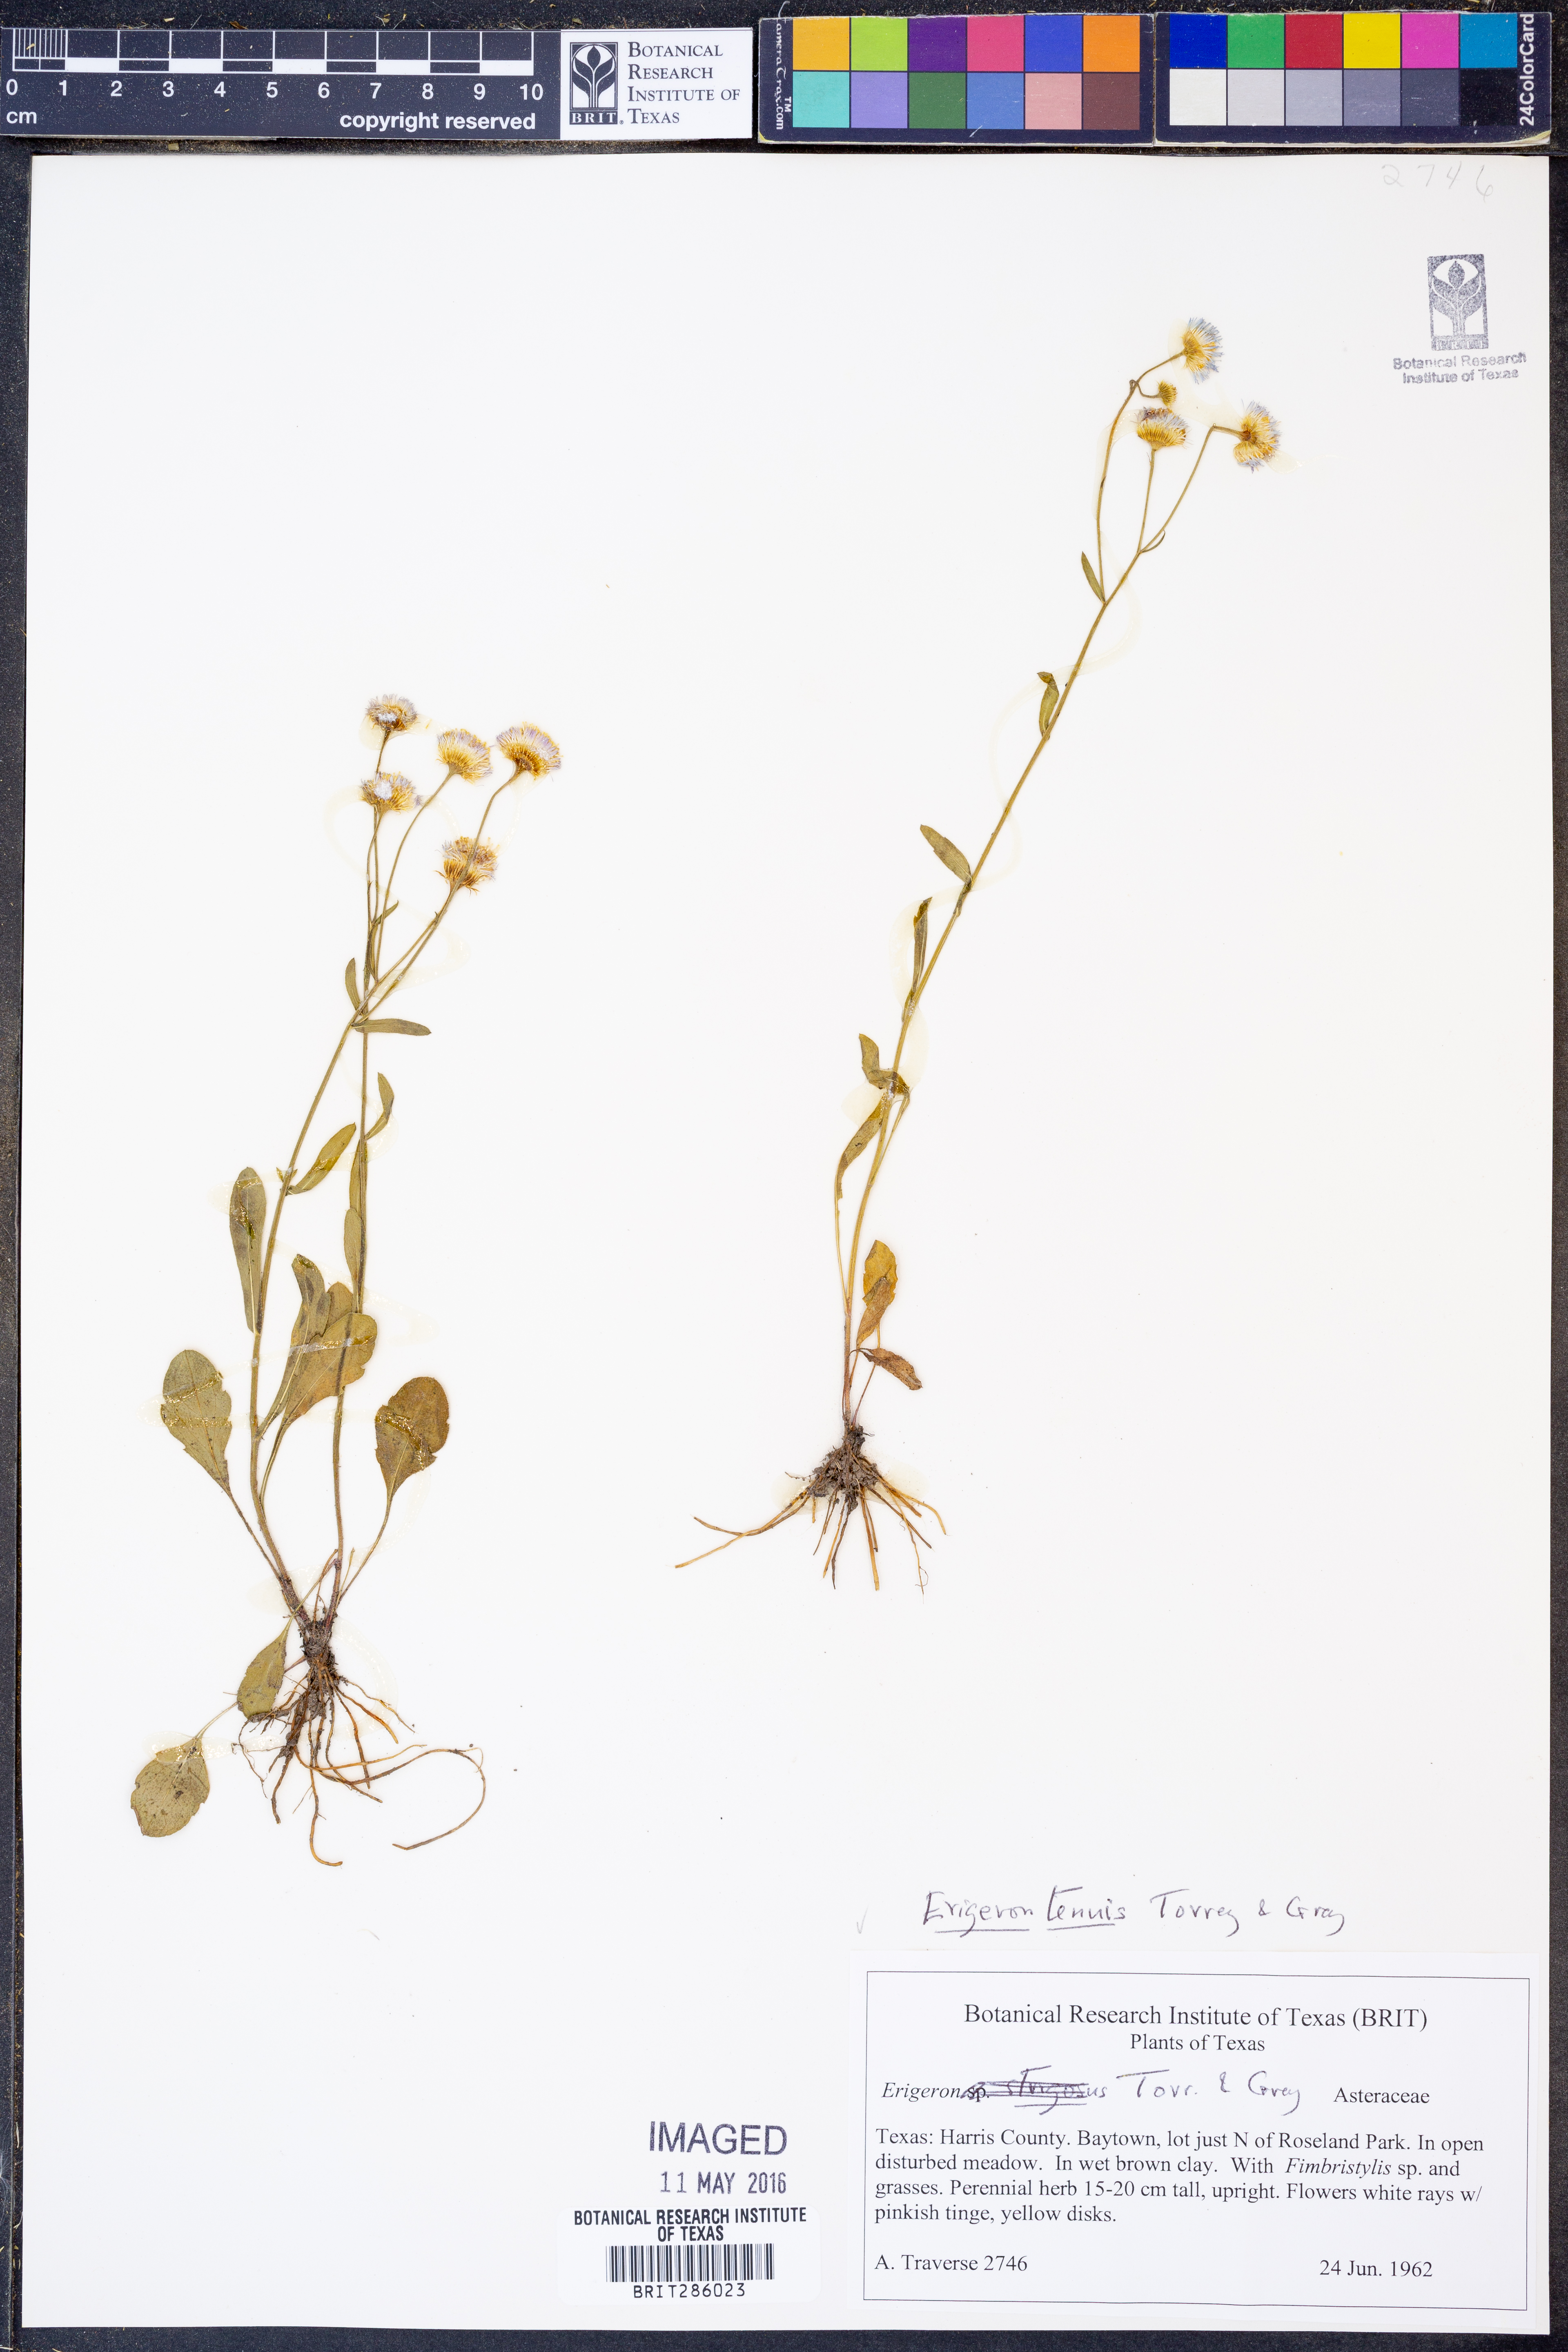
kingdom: Plantae
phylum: Tracheophyta
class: Magnoliopsida
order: Asterales
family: Asteraceae
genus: Erigeron
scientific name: Erigeron tenuis
